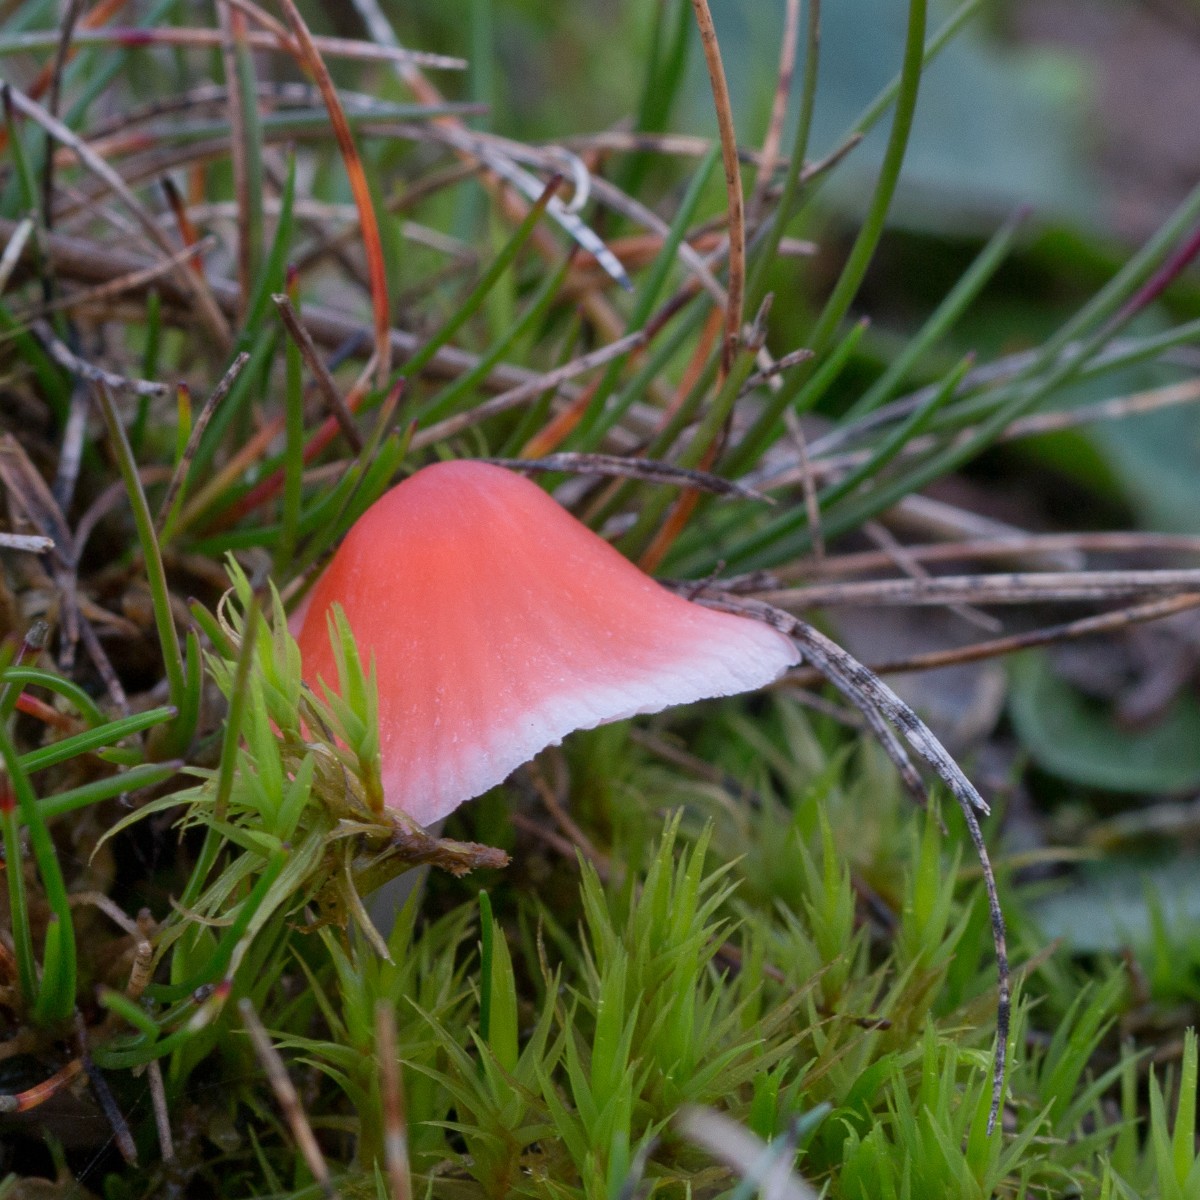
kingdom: Fungi
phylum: Basidiomycota
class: Agaricomycetes
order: Agaricales
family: Mycenaceae
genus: Atheniella
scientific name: Atheniella adonis
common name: rønnerød huesvamp
